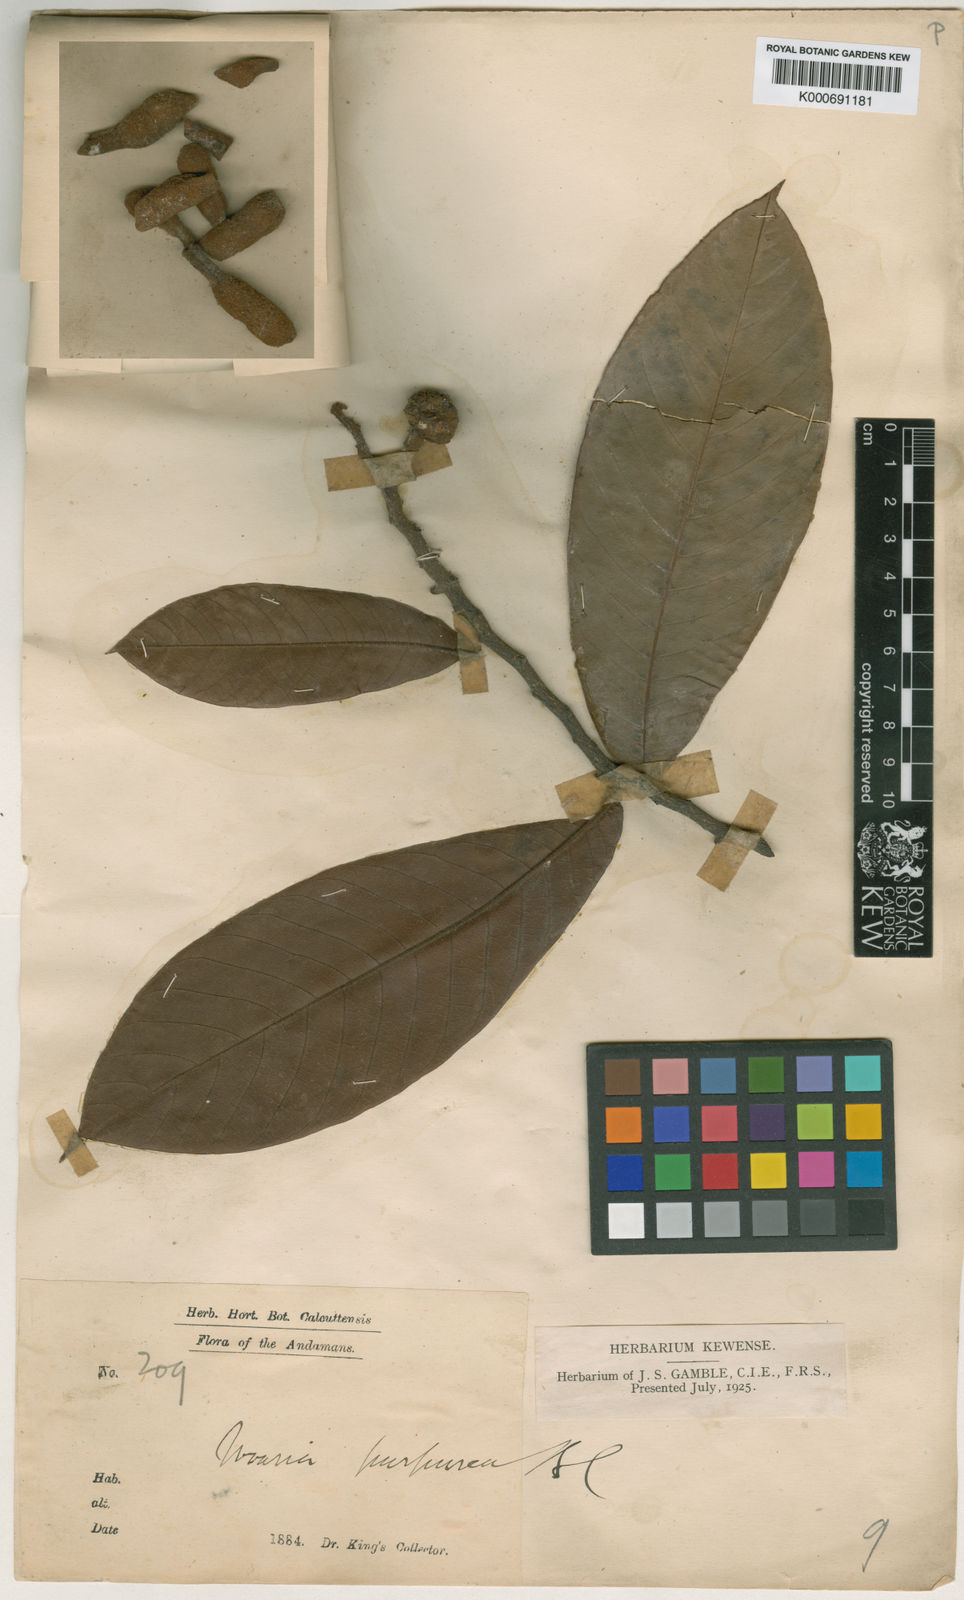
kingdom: Plantae
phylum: Tracheophyta
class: Magnoliopsida
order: Magnoliales
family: Annonaceae
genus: Uvaria
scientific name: Uvaria andamanica
